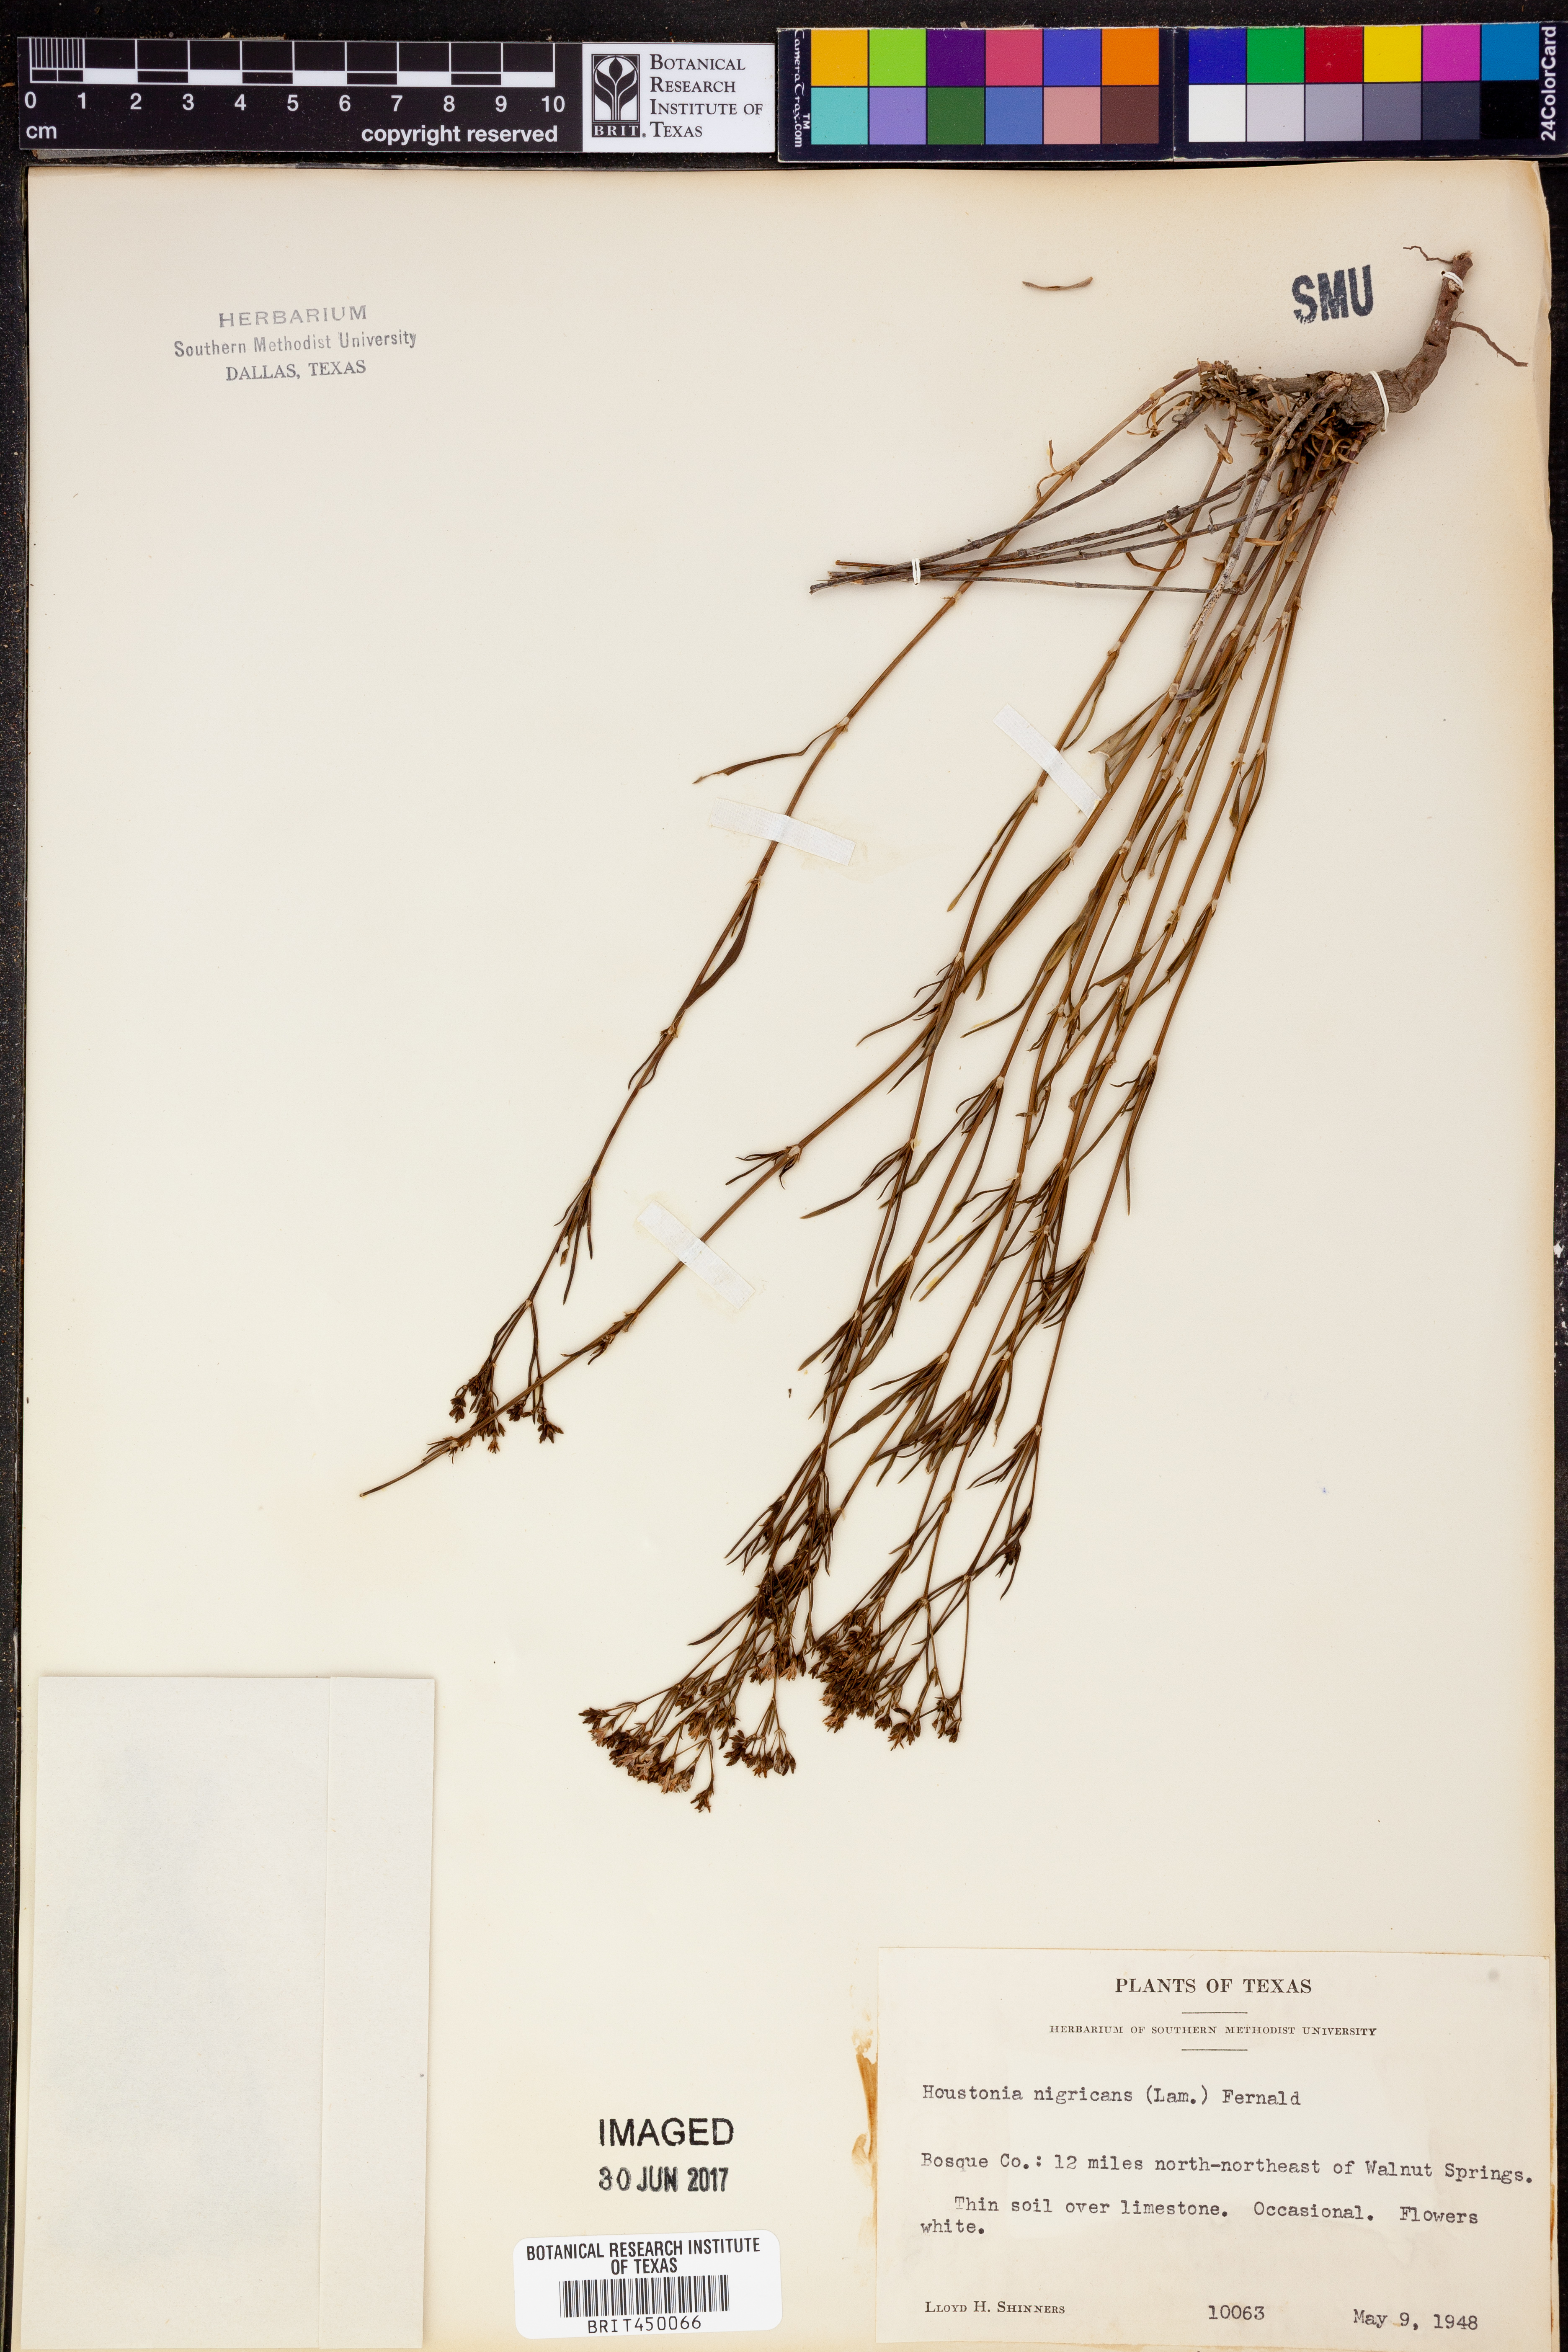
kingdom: Plantae
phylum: Tracheophyta
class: Magnoliopsida
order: Gentianales
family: Rubiaceae
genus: Stenaria
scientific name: Stenaria nigricans
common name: Diamondflowers
